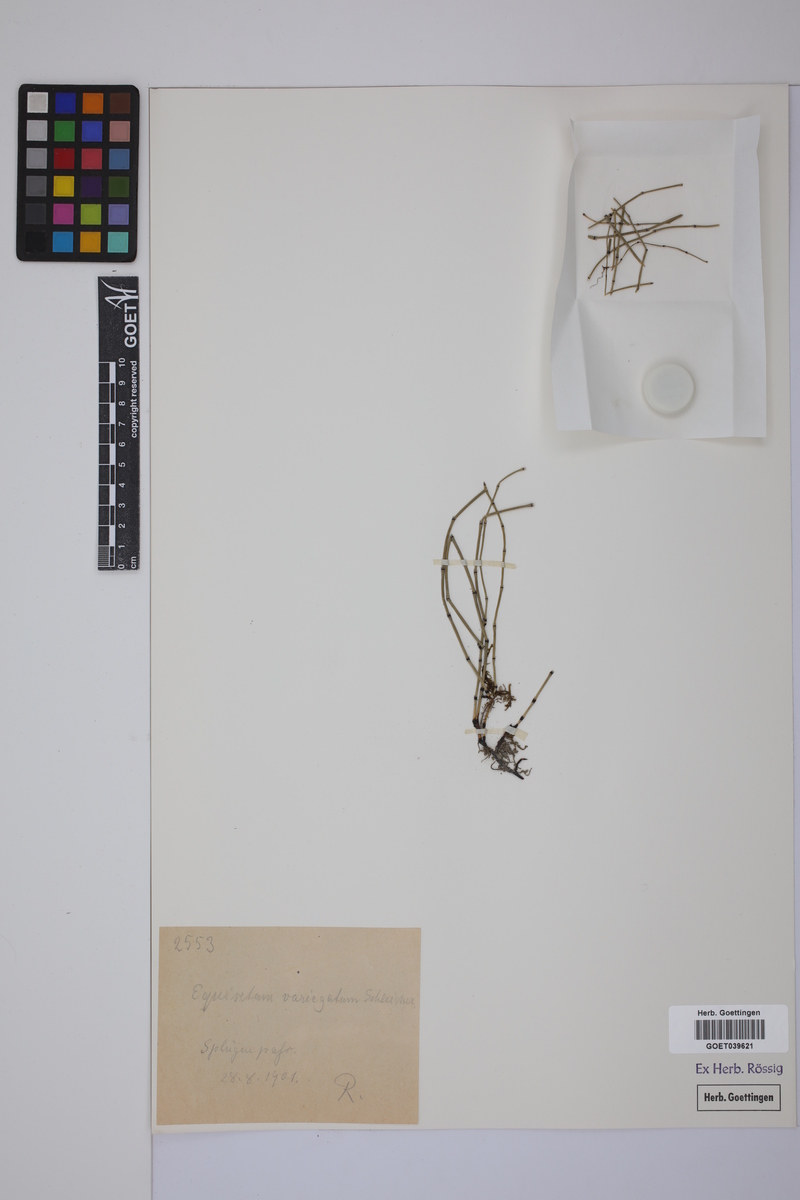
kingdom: Plantae
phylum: Tracheophyta
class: Polypodiopsida
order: Equisetales
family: Equisetaceae
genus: Equisetum
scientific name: Equisetum variegatum
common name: Variegated horsetail
